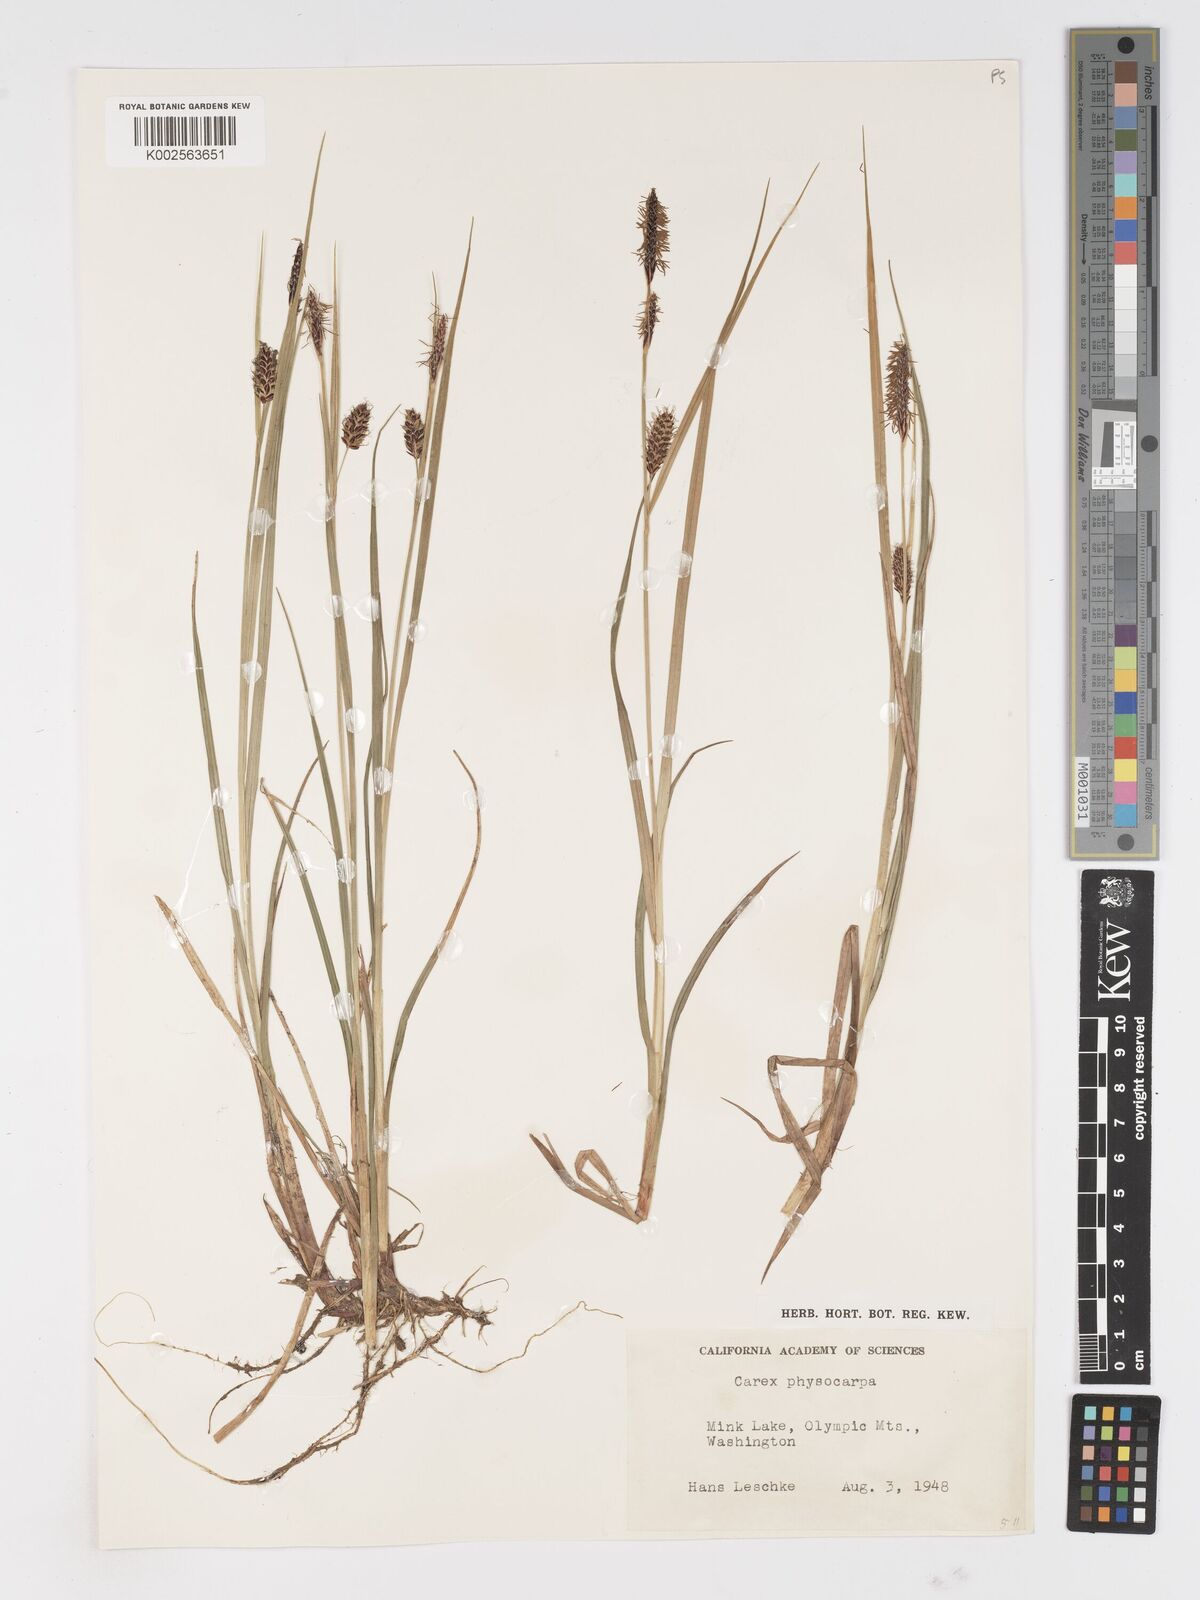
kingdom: Plantae
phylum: Tracheophyta
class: Liliopsida
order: Poales
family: Cyperaceae
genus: Carex
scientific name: Carex saxatilis
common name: Russet sedge
